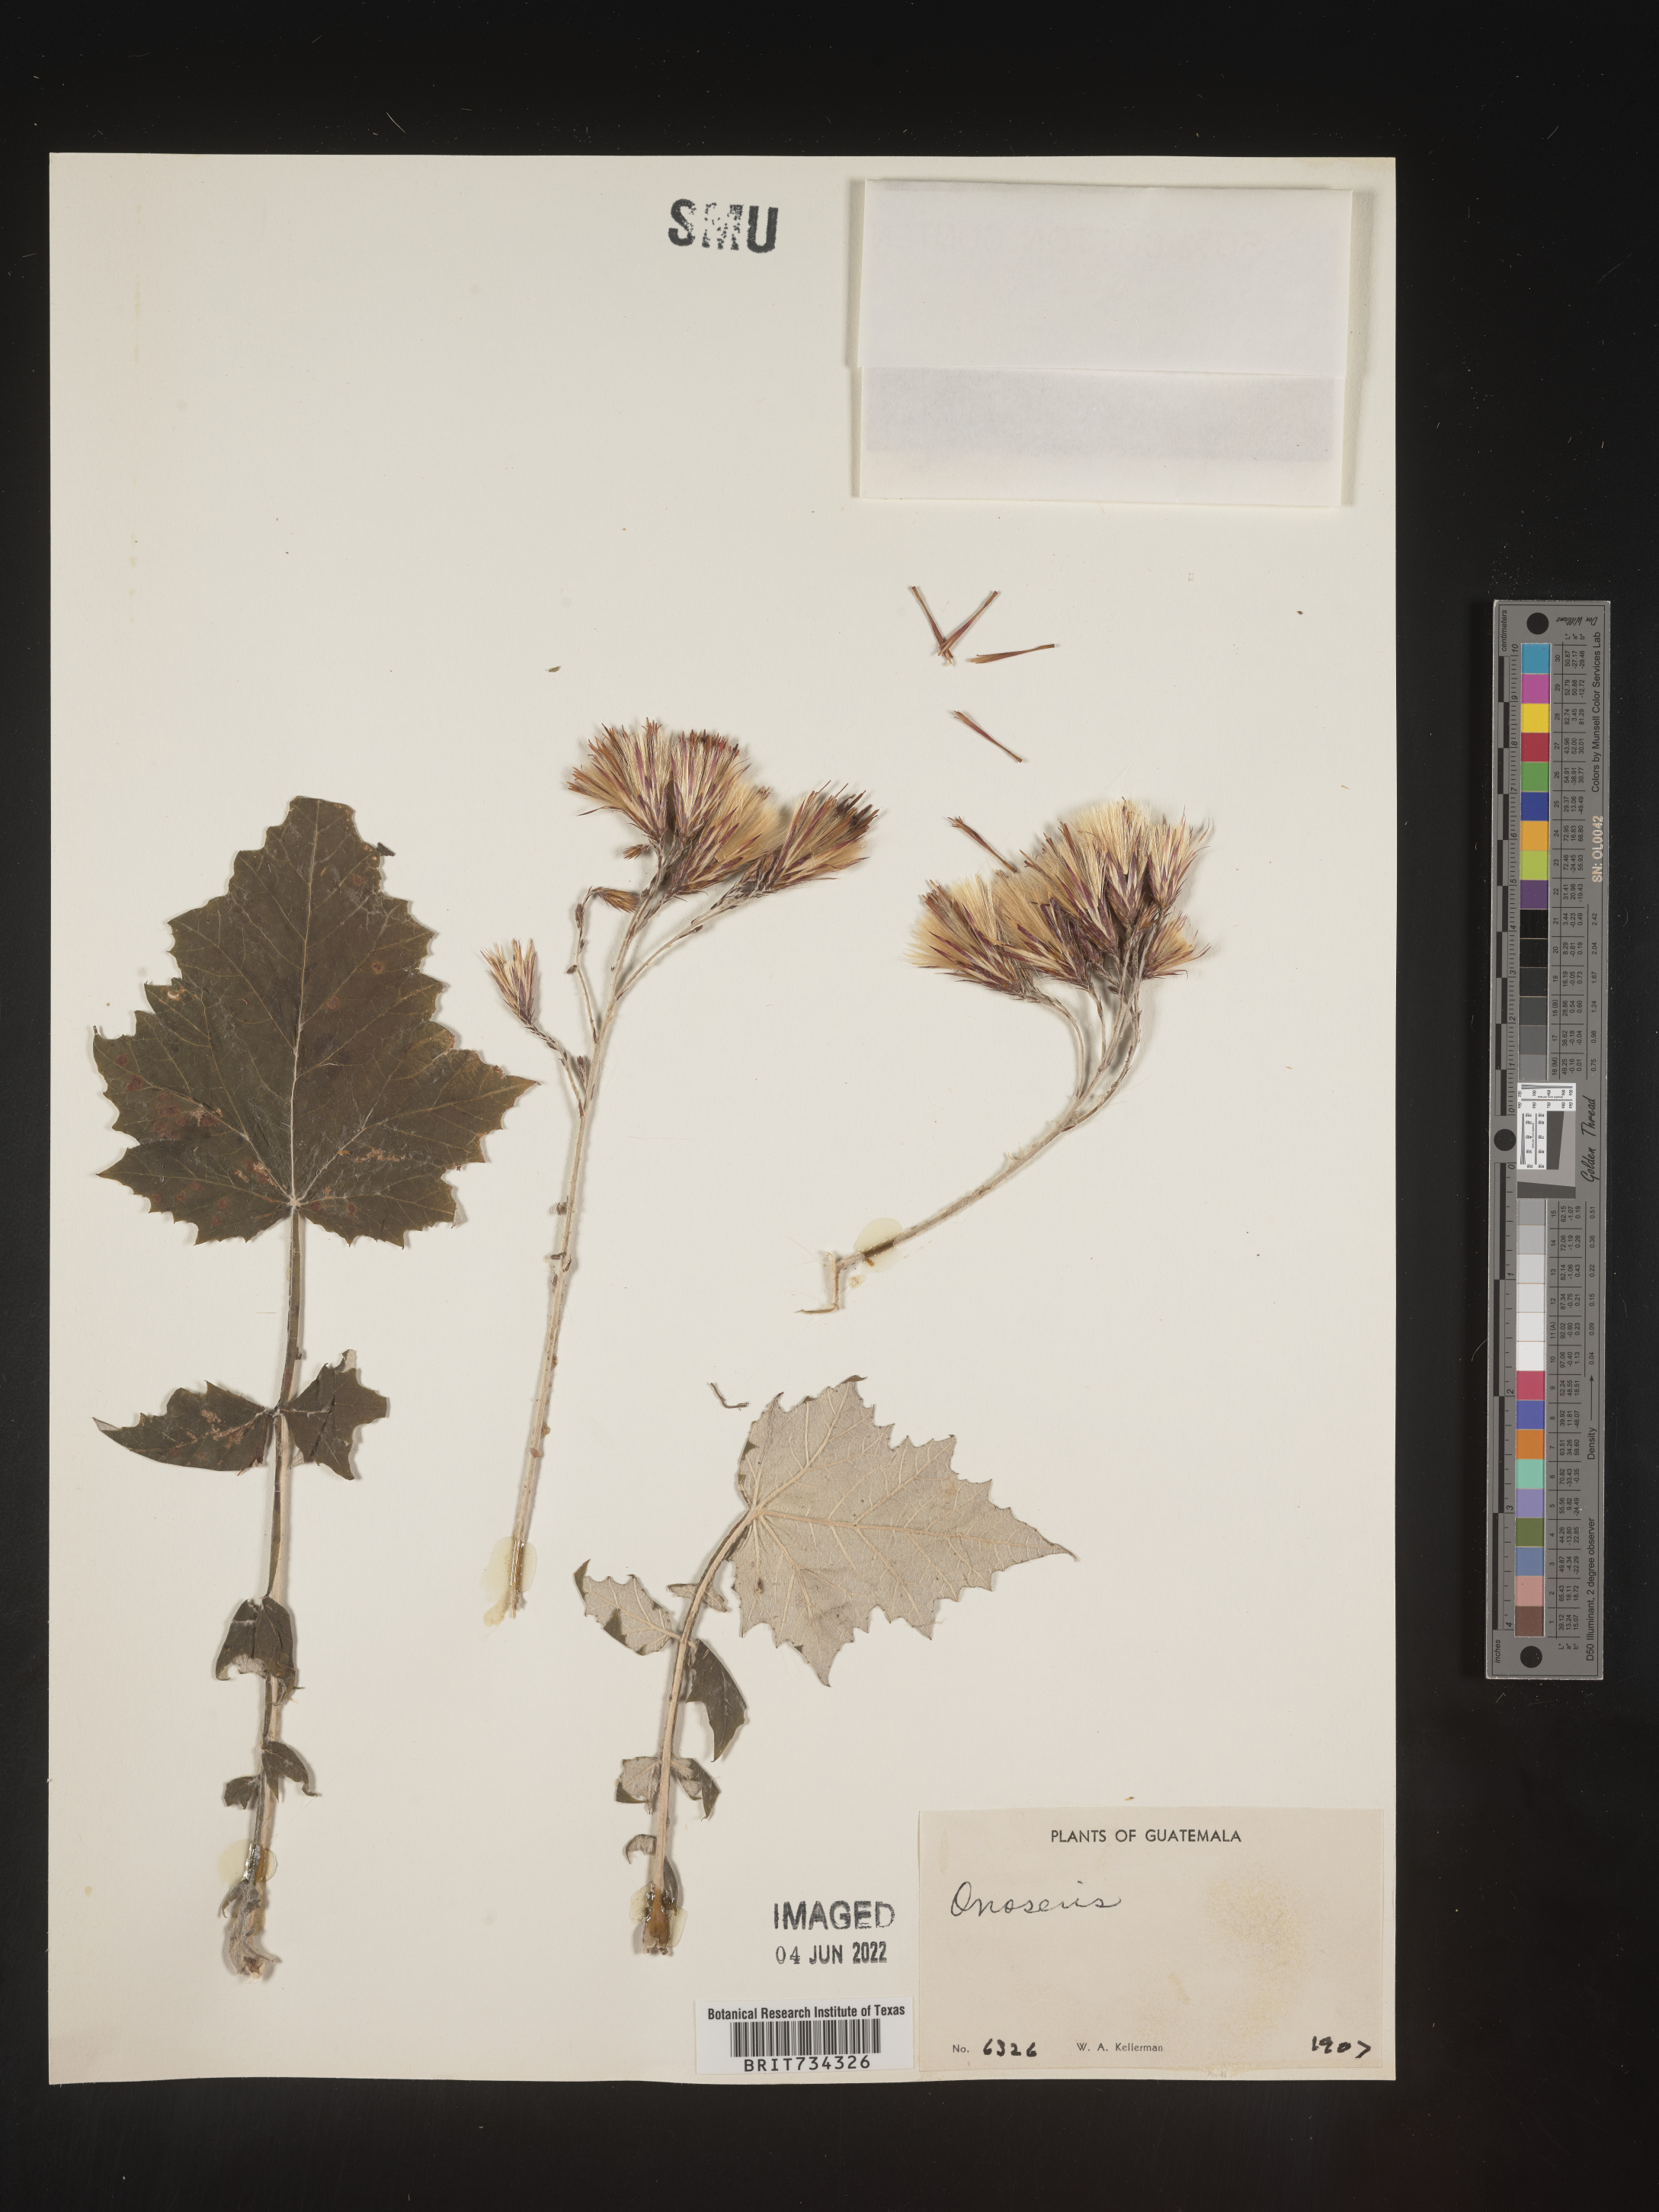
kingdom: Plantae
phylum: Tracheophyta
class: Magnoliopsida
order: Asterales
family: Asteraceae
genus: Onoseris
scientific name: Onoseris
